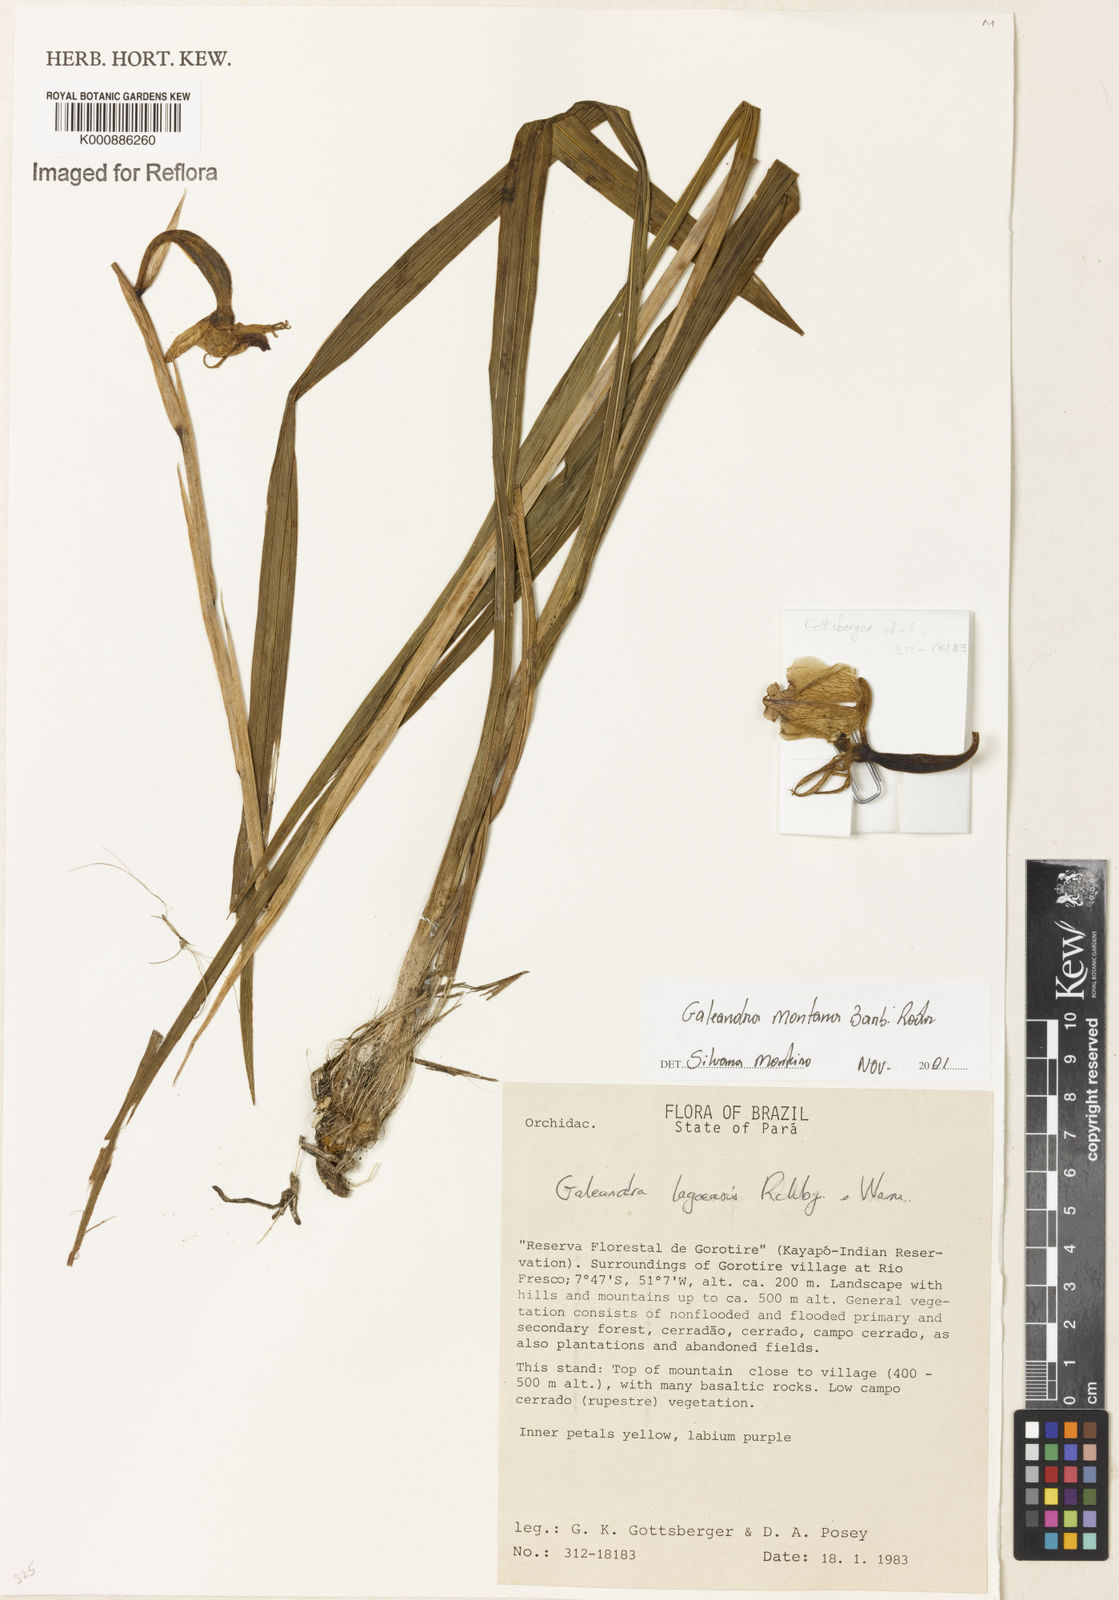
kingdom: Plantae
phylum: Tracheophyta
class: Liliopsida
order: Asparagales
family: Orchidaceae
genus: Galeandra
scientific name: Galeandra montana
